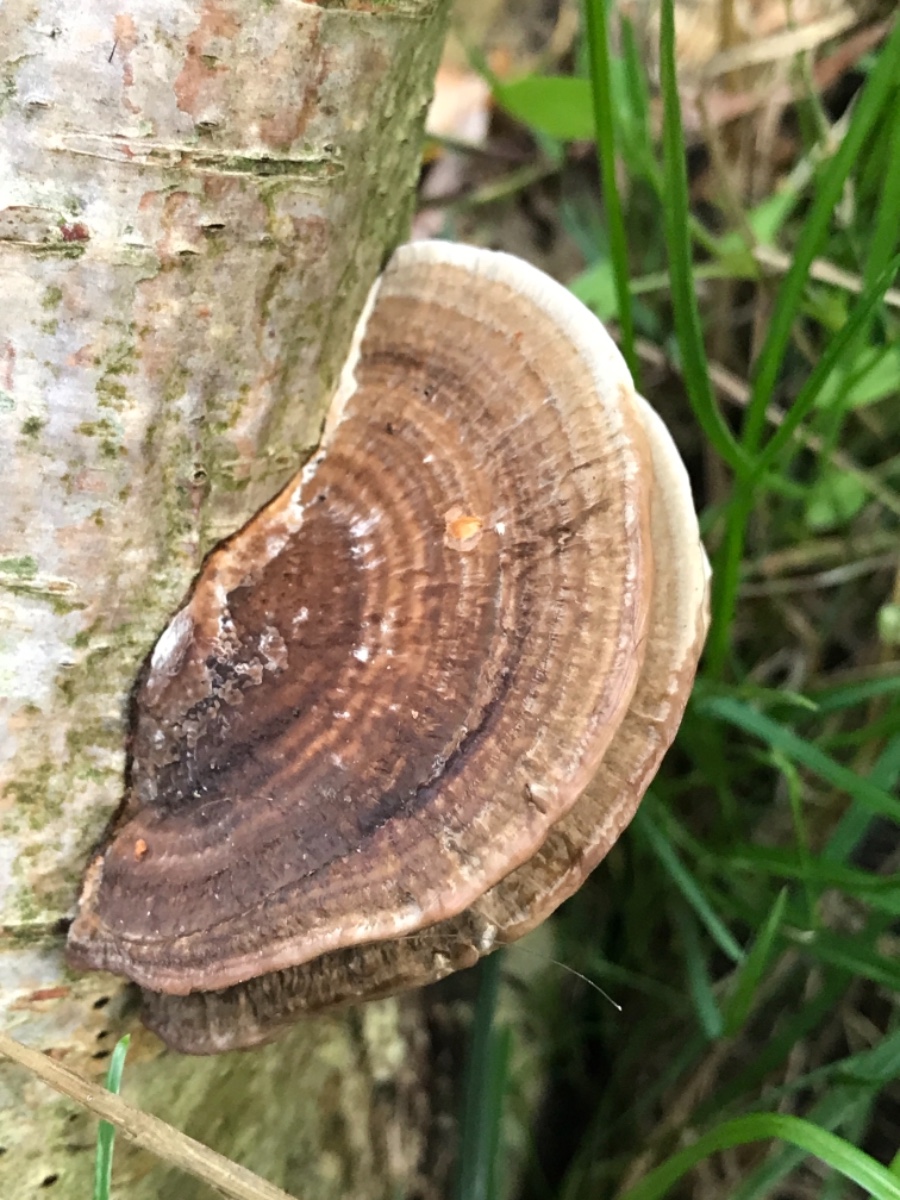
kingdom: Fungi
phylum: Basidiomycota
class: Agaricomycetes
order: Polyporales
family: Polyporaceae
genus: Daedaleopsis
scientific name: Daedaleopsis confragosa
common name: rødmende læderporesvamp
